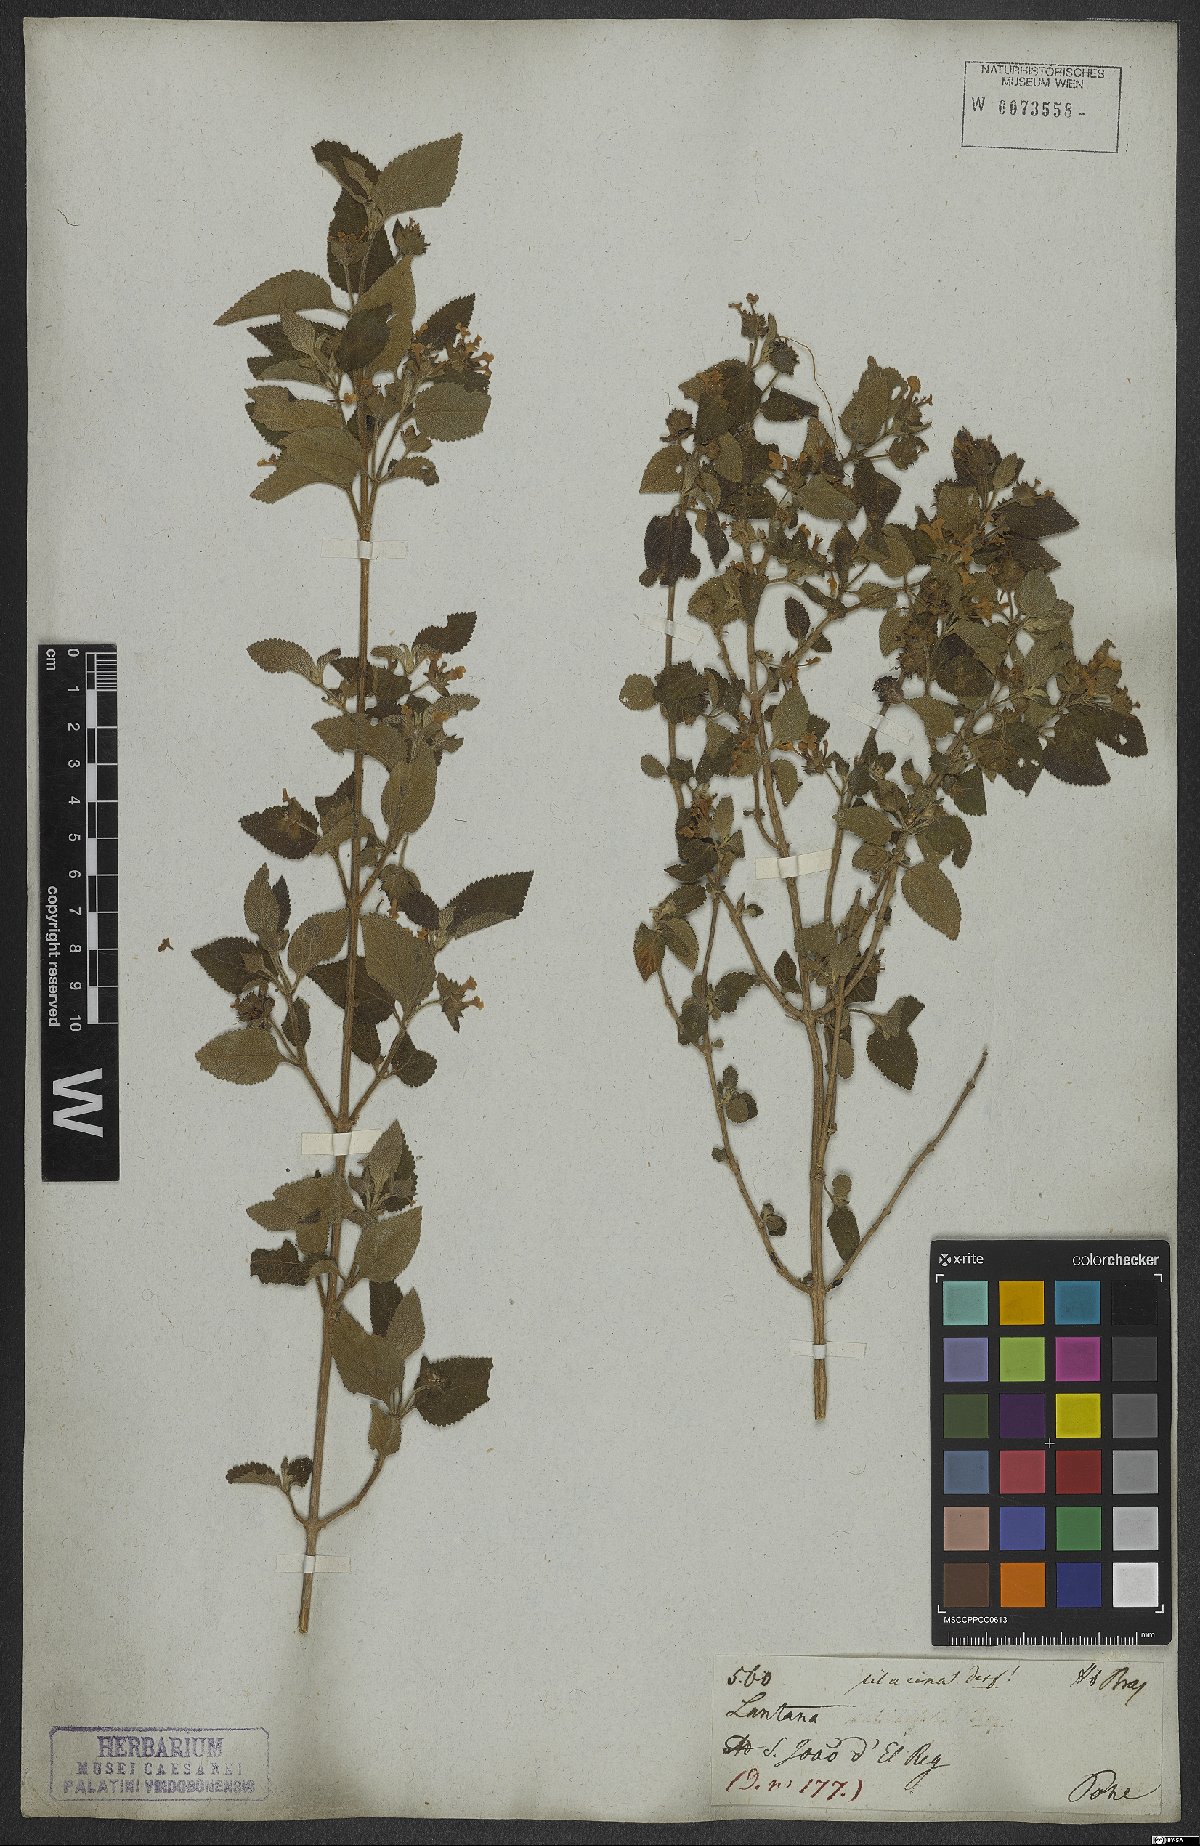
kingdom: Plantae
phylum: Tracheophyta
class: Magnoliopsida
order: Lamiales
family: Verbenaceae
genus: Lantana
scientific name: Lantana fucata
